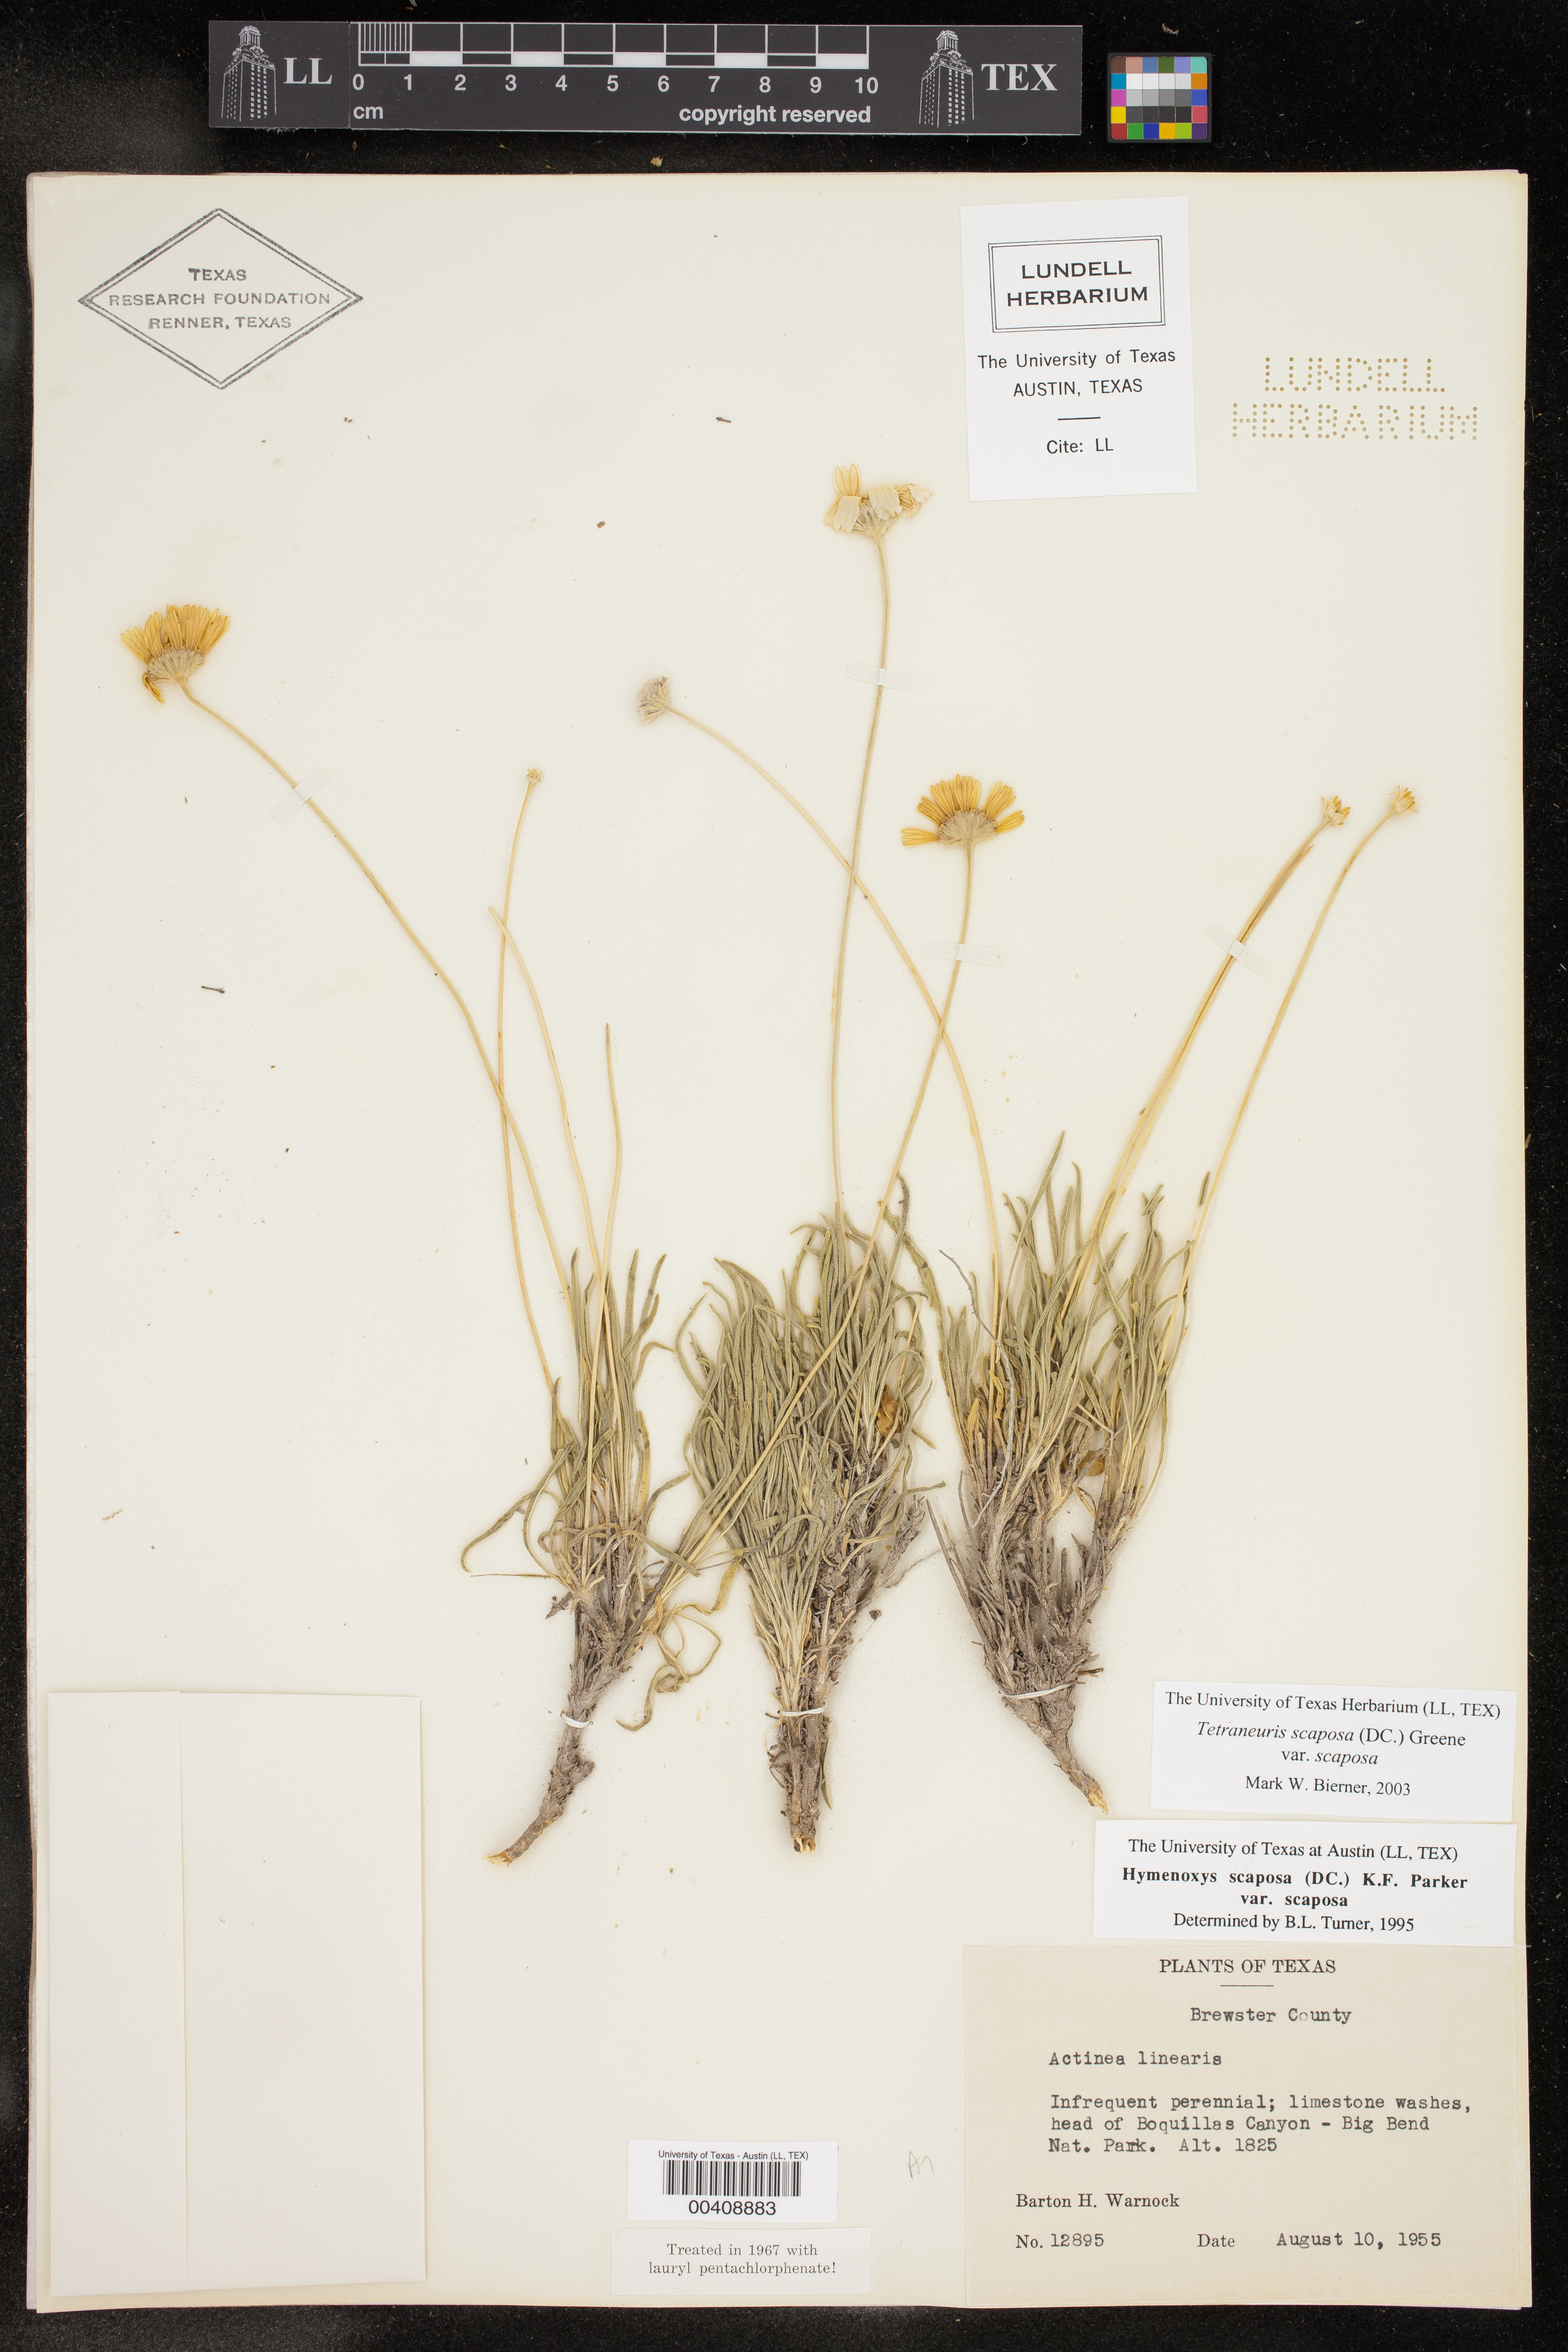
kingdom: Plantae
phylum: Tracheophyta
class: Magnoliopsida
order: Asterales
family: Asteraceae
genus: Tetraneuris
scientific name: Tetraneuris scaposa
